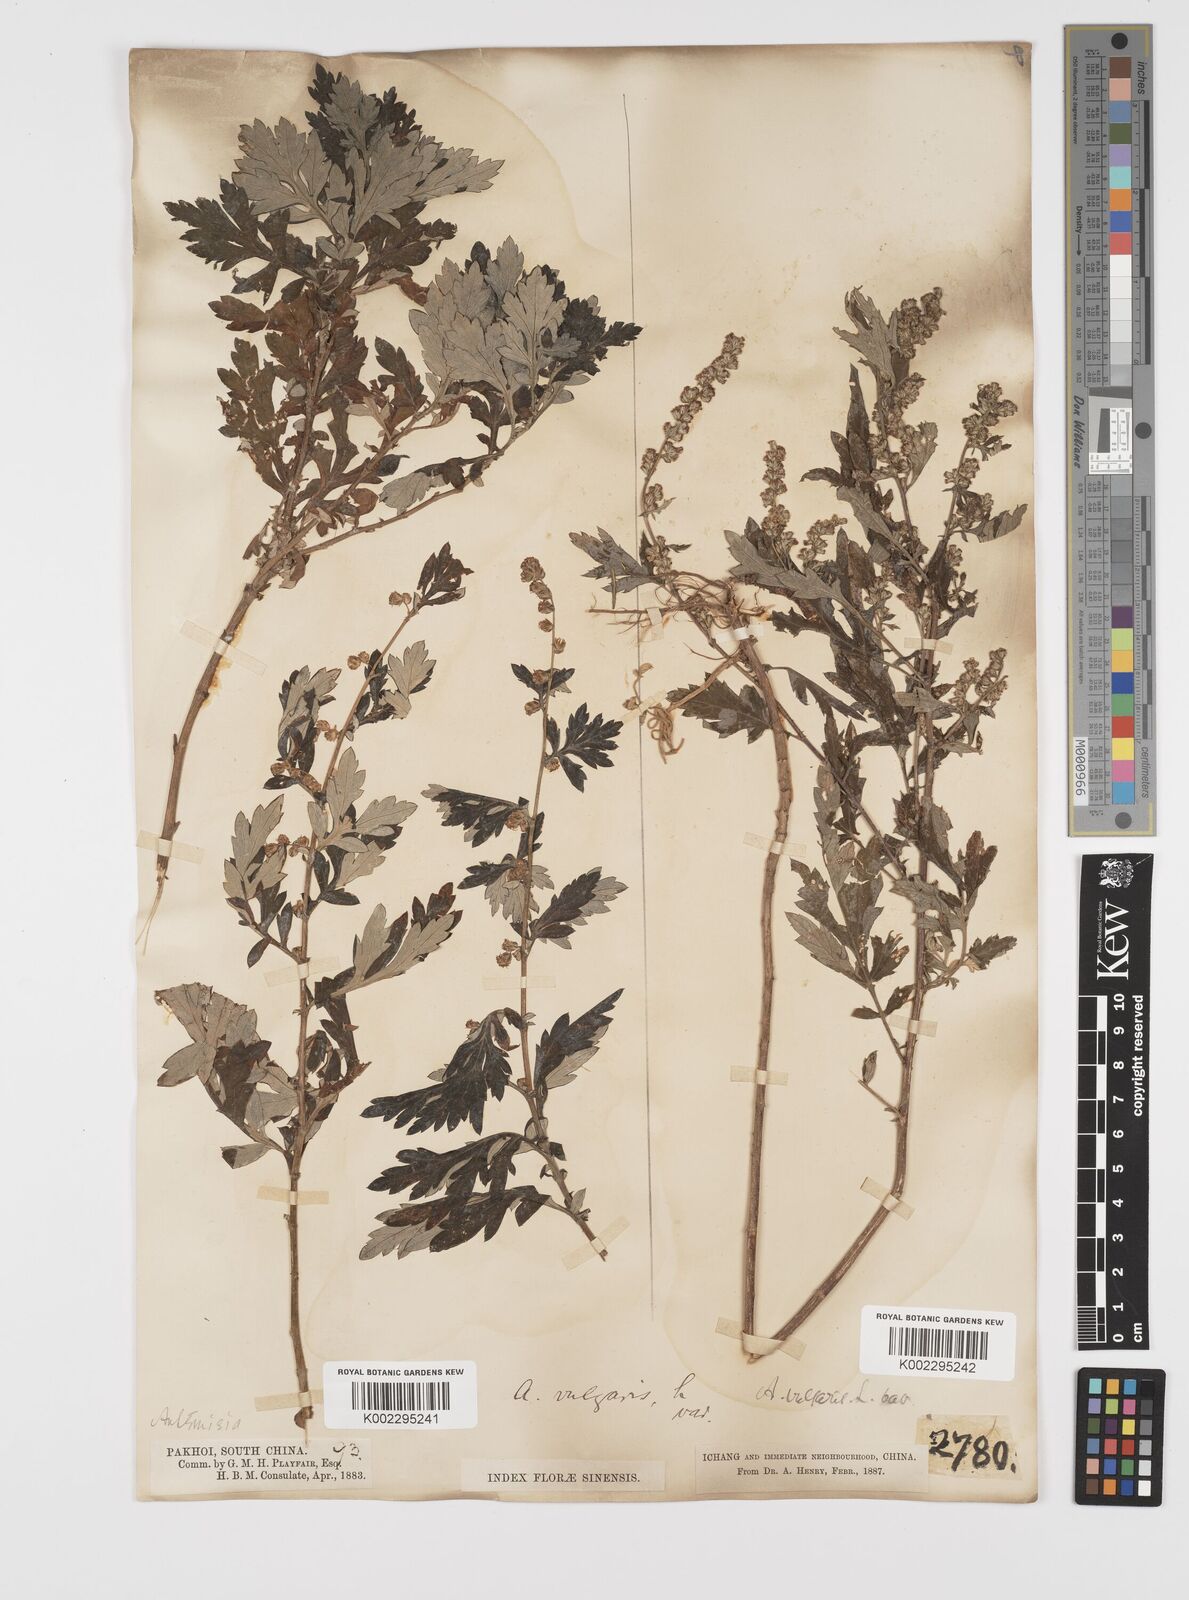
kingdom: Plantae
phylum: Tracheophyta
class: Magnoliopsida
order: Asterales
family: Asteraceae
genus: Artemisia
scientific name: Artemisia indica
